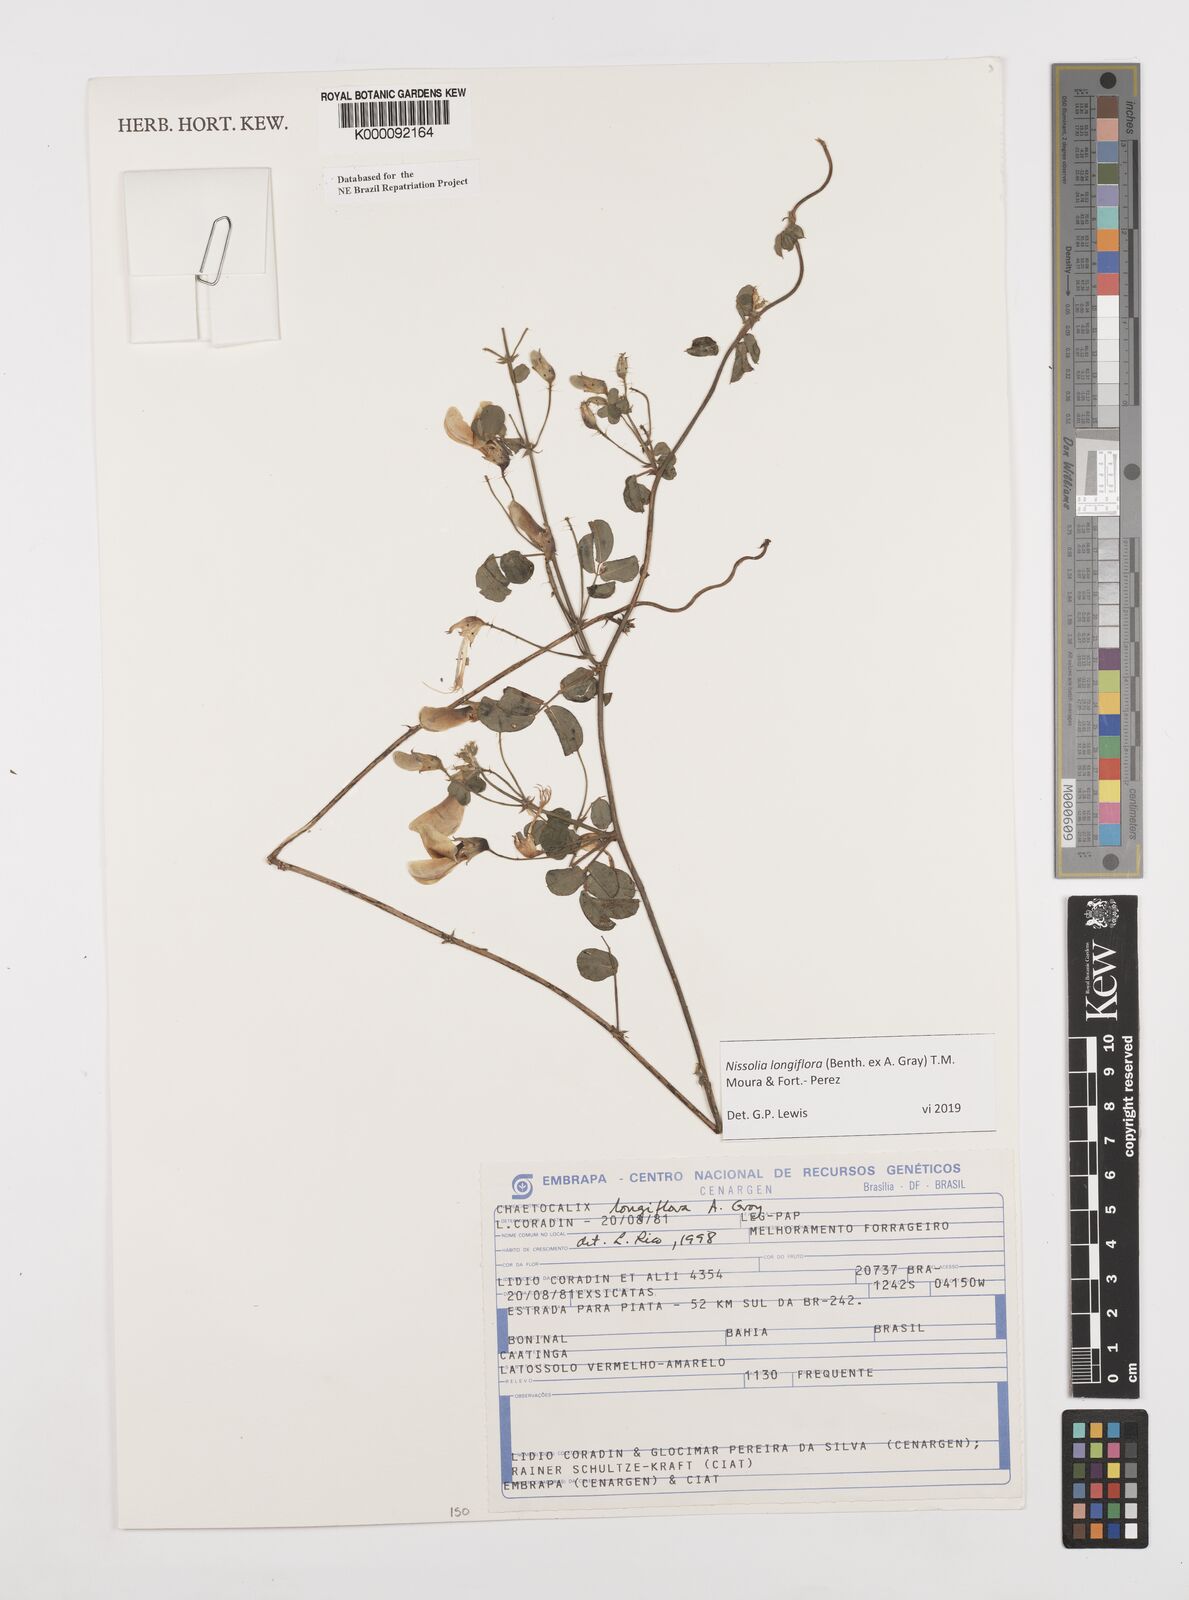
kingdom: Plantae
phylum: Tracheophyta
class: Magnoliopsida
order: Fabales
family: Fabaceae
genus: Nissolia
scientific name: Nissolia longiflora
